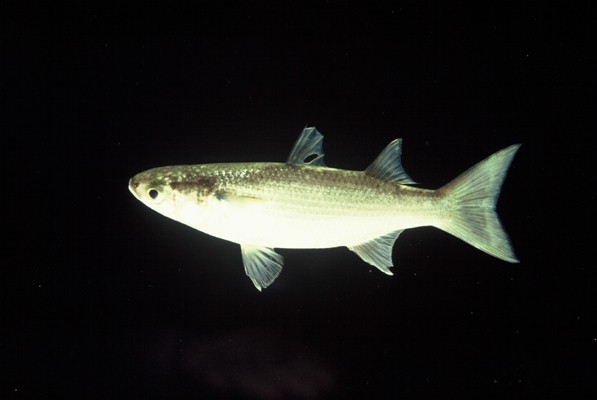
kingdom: Animalia
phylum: Chordata
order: Mugiliformes
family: Mugilidae
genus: Mugil
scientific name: Mugil cephalus
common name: Grey mullet
